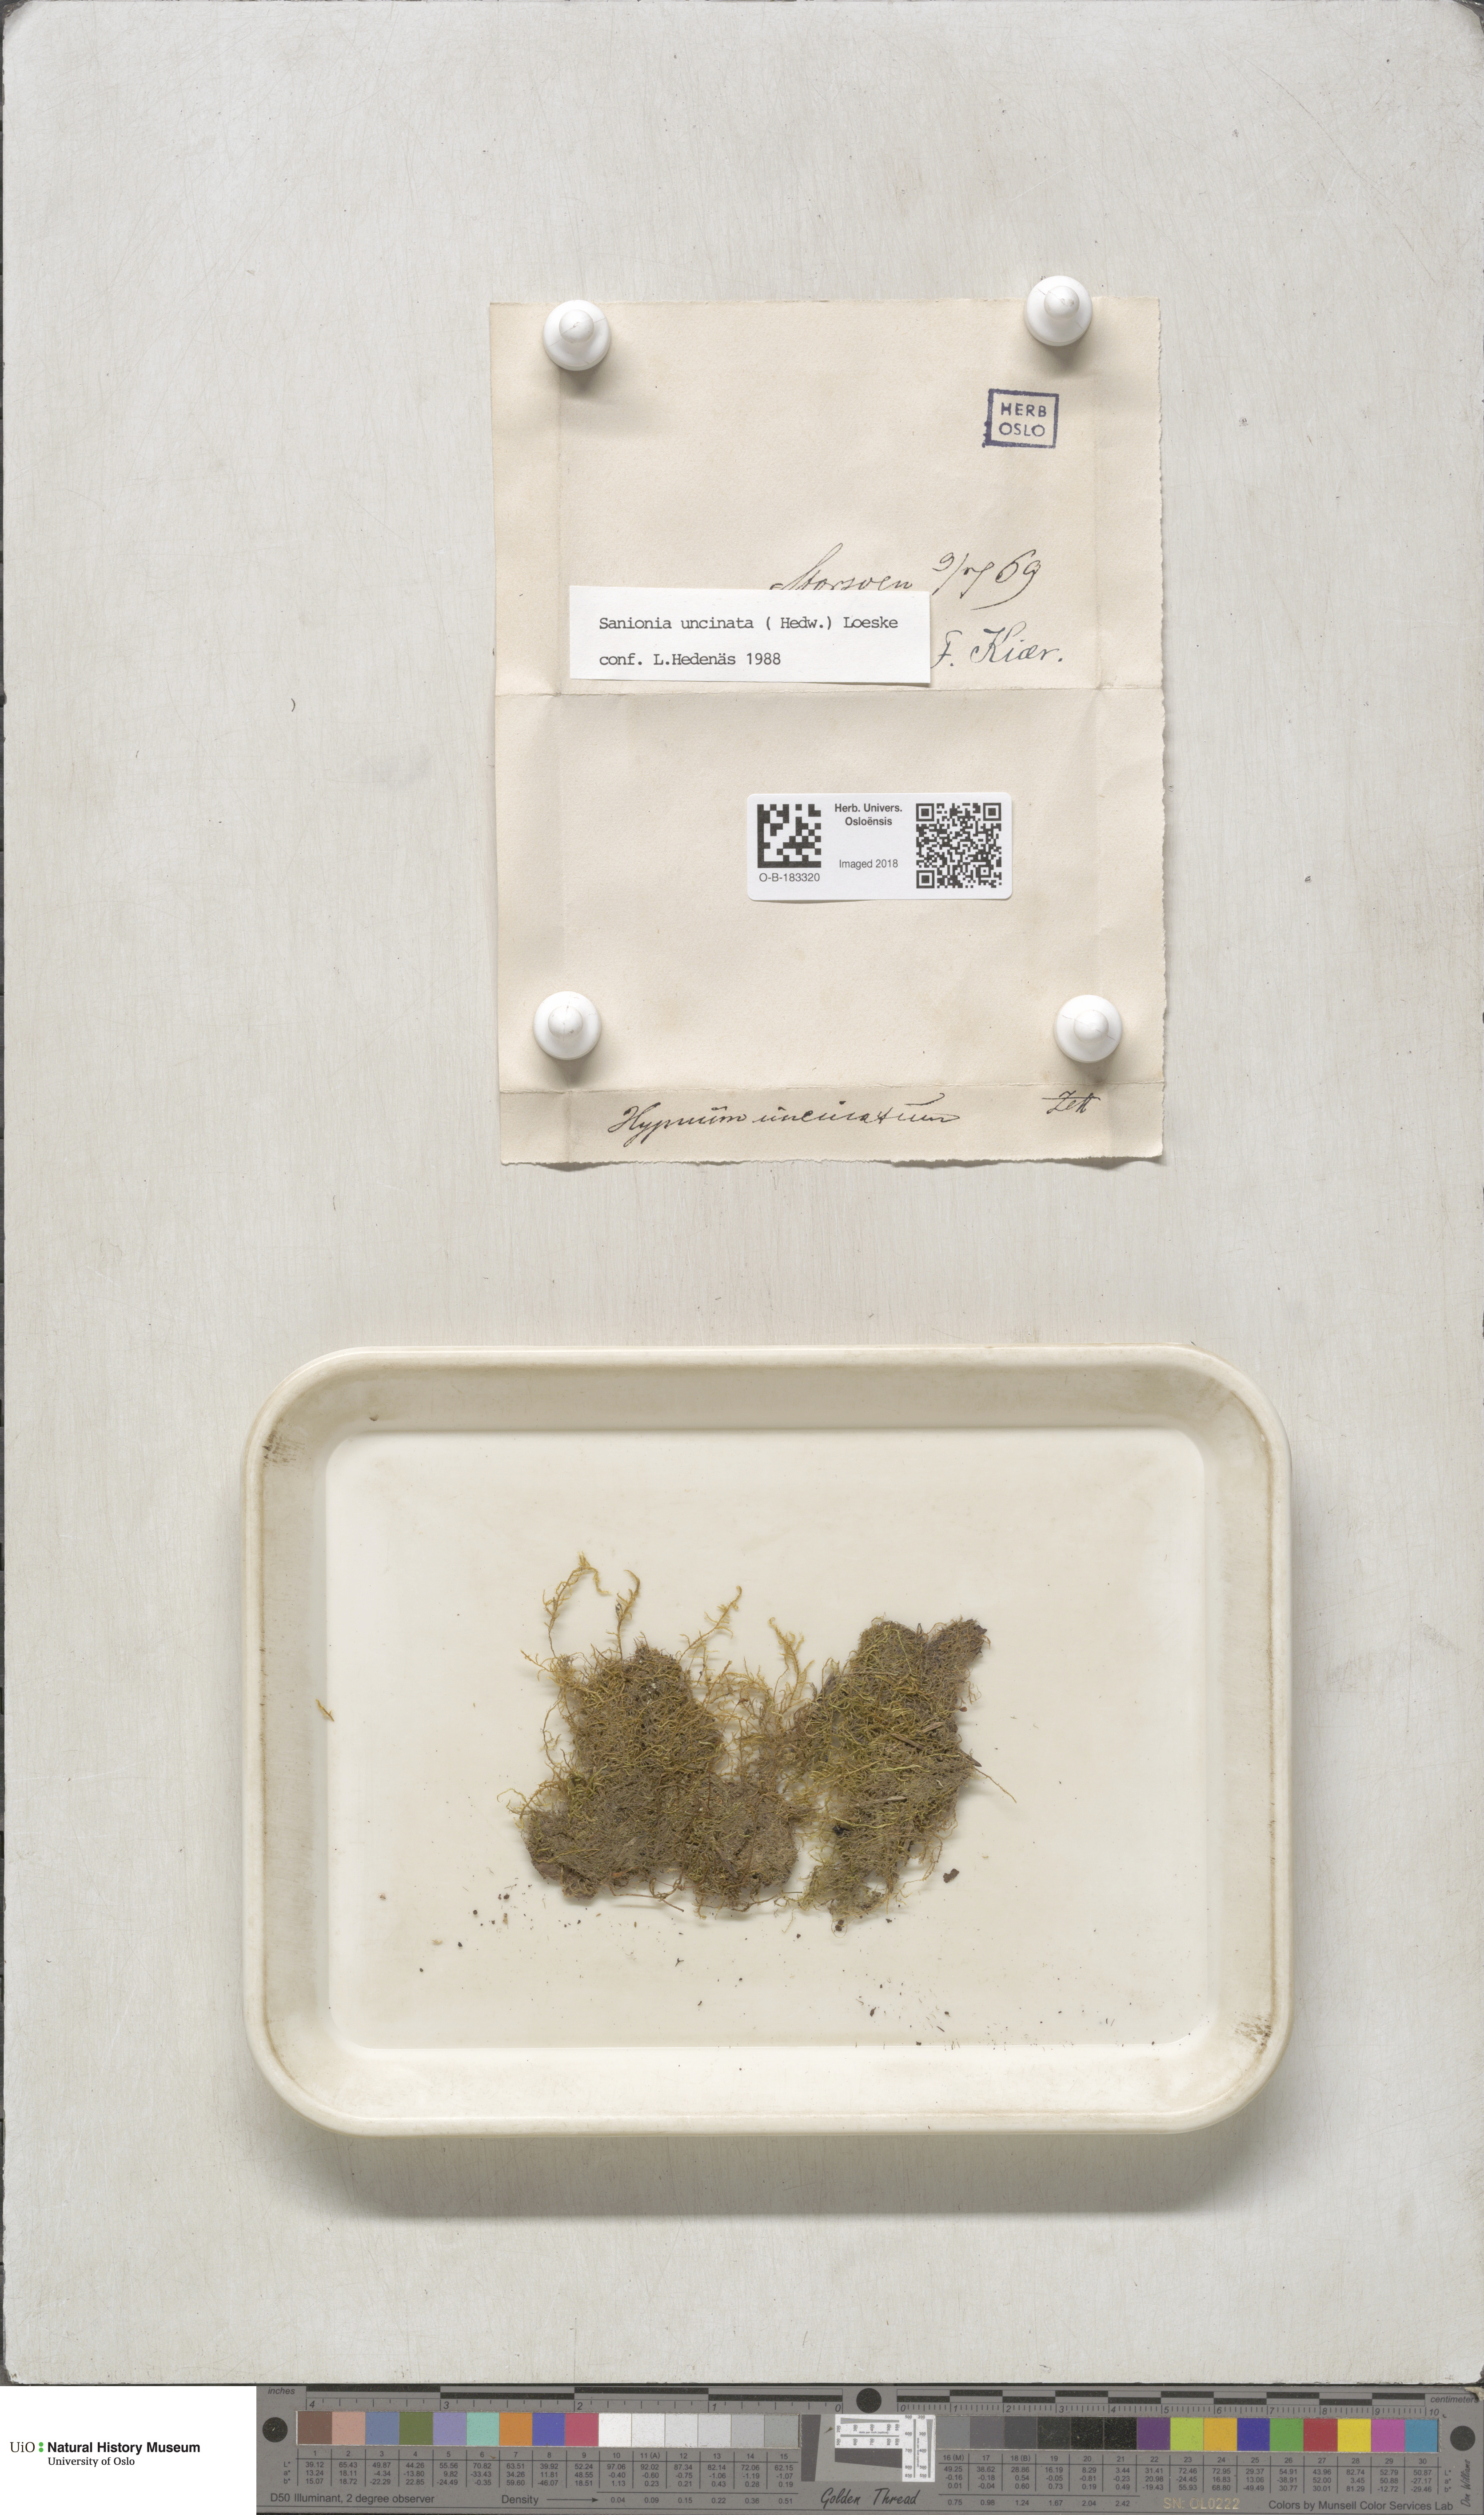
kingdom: Plantae
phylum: Bryophyta
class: Bryopsida
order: Hypnales
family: Scorpidiaceae
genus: Sanionia
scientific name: Sanionia uncinata
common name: Sickle moss
